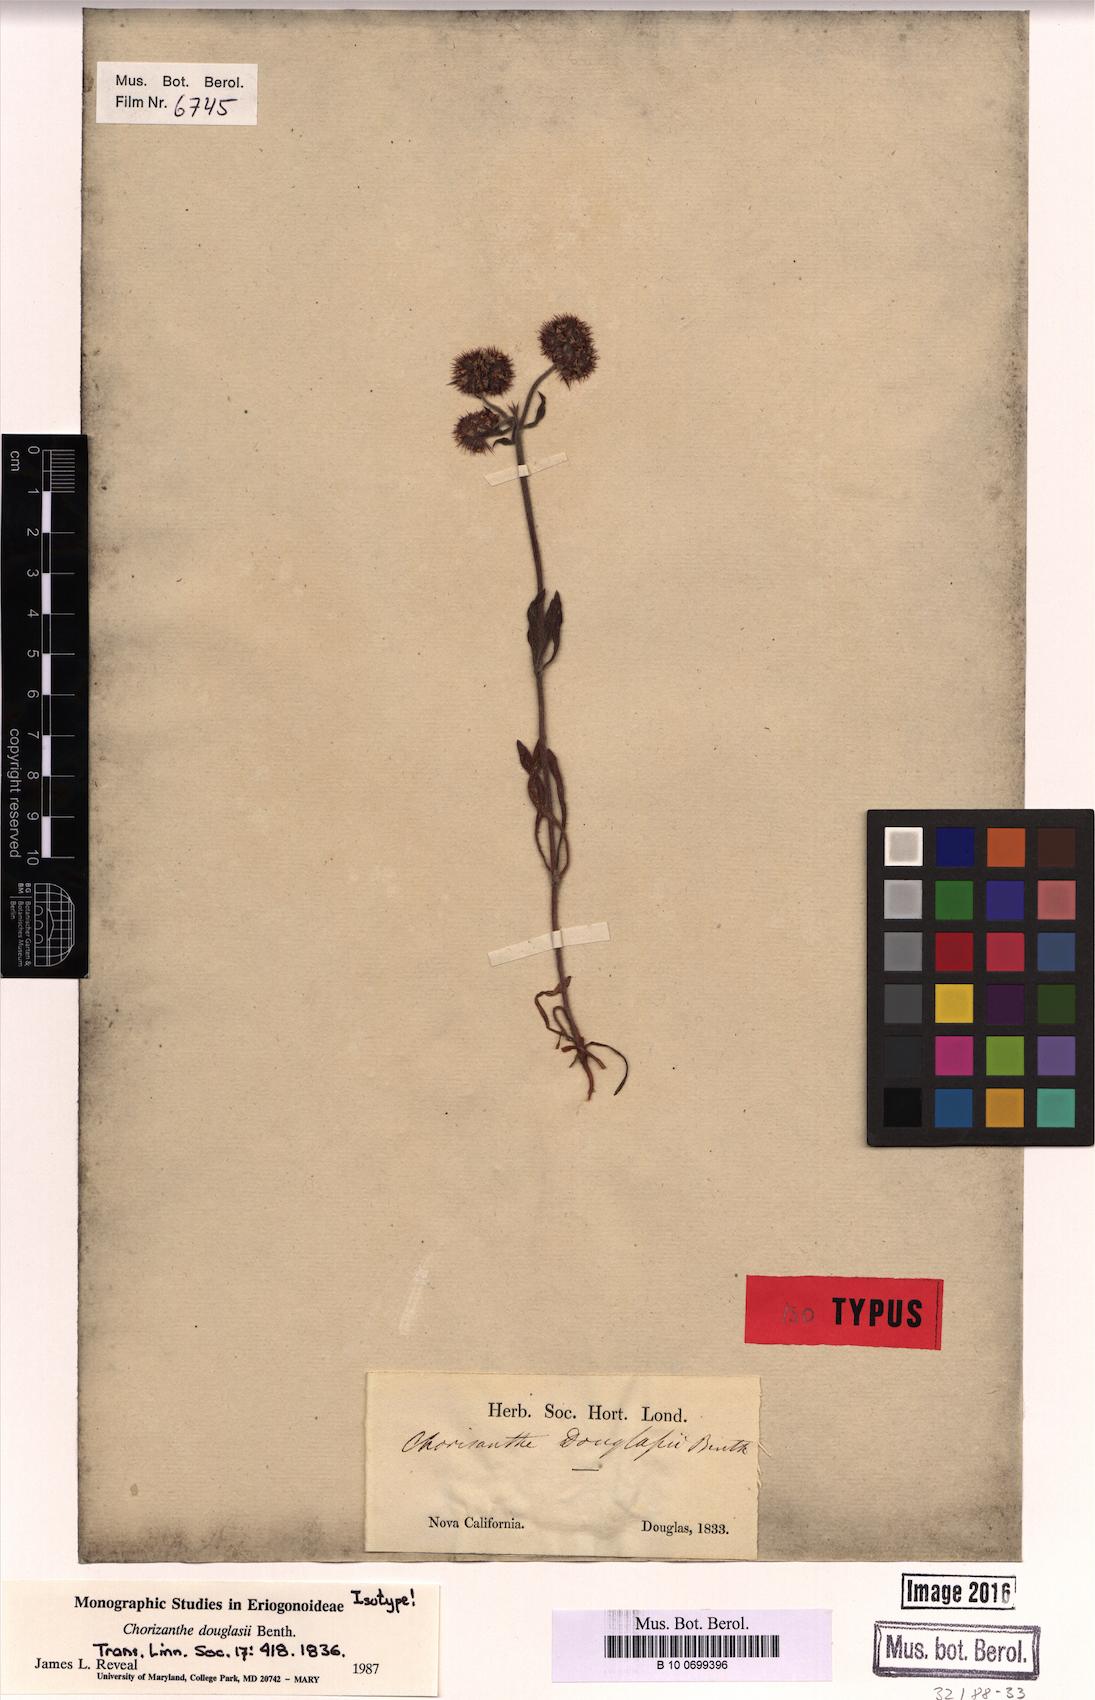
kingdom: Plantae
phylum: Tracheophyta
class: Magnoliopsida
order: Caryophyllales
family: Polygonaceae
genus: Chorizanthe
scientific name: Chorizanthe douglasii
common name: Douglas's spineflower
